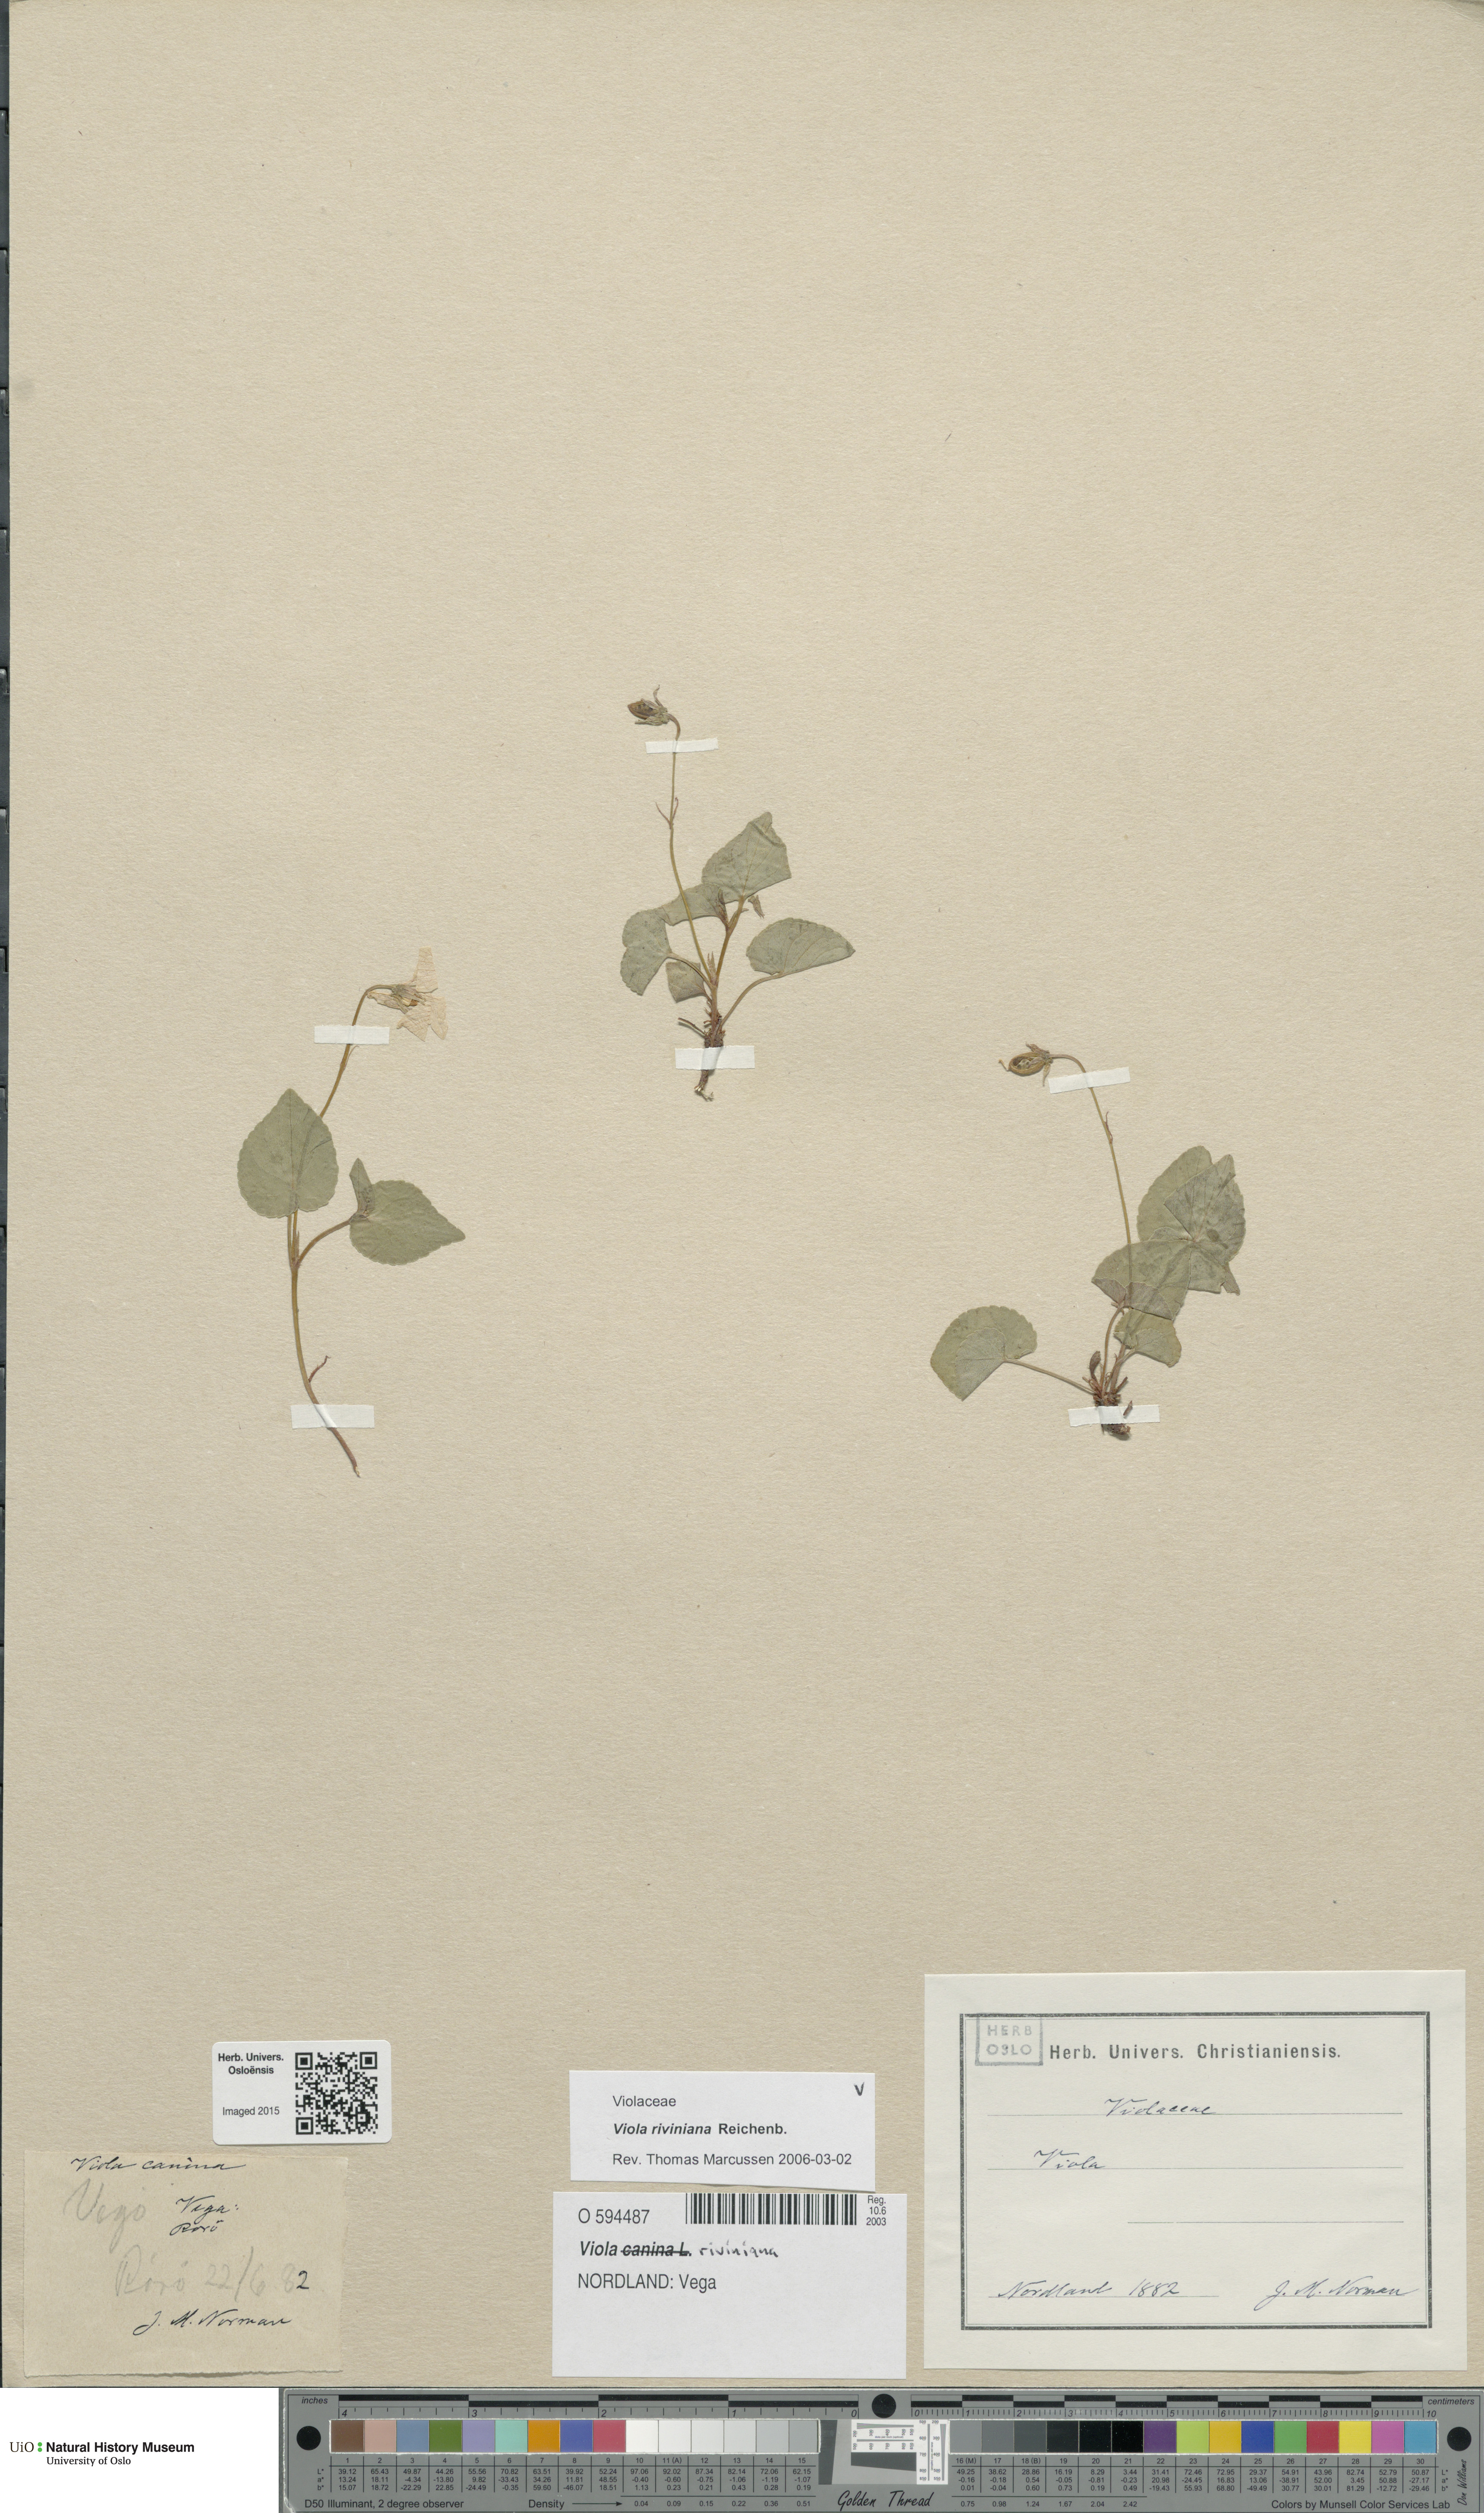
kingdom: Plantae
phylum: Tracheophyta
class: Magnoliopsida
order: Malpighiales
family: Violaceae
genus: Viola
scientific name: Viola riviniana
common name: Common dog-violet
